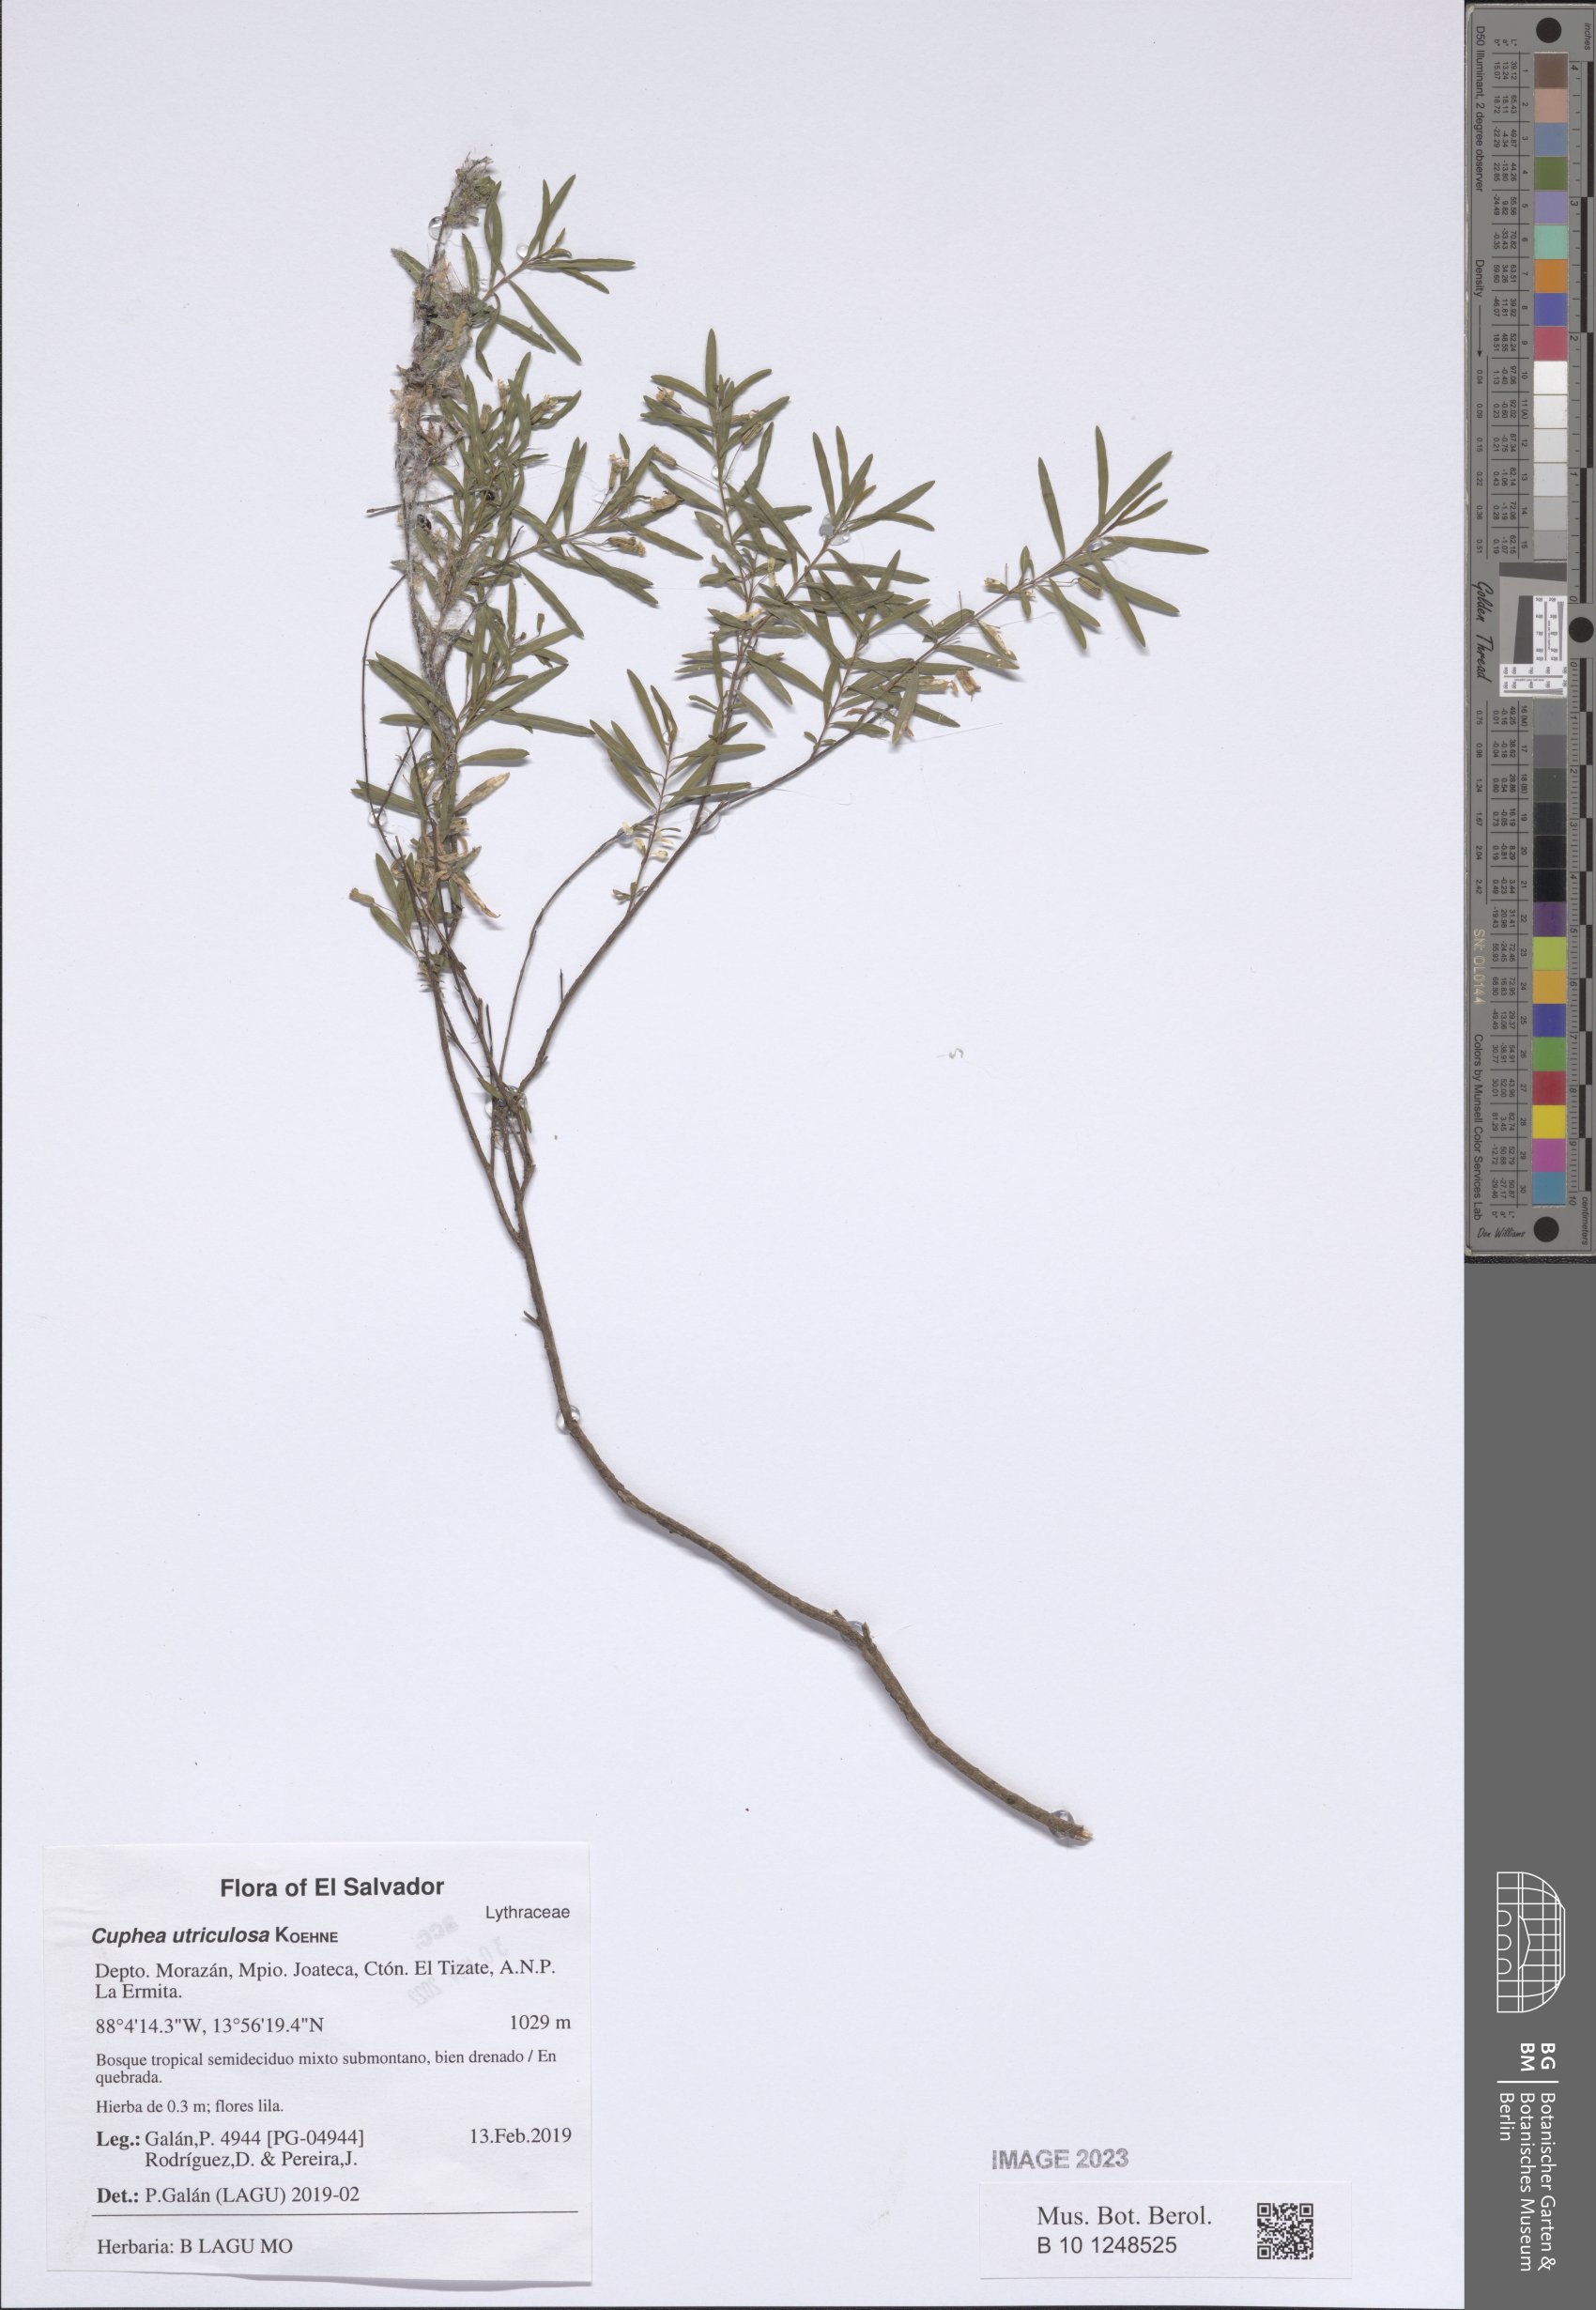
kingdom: Plantae
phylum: Tracheophyta
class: Magnoliopsida
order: Myrtales
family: Lythraceae
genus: Cuphea
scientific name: Cuphea utriculosa
